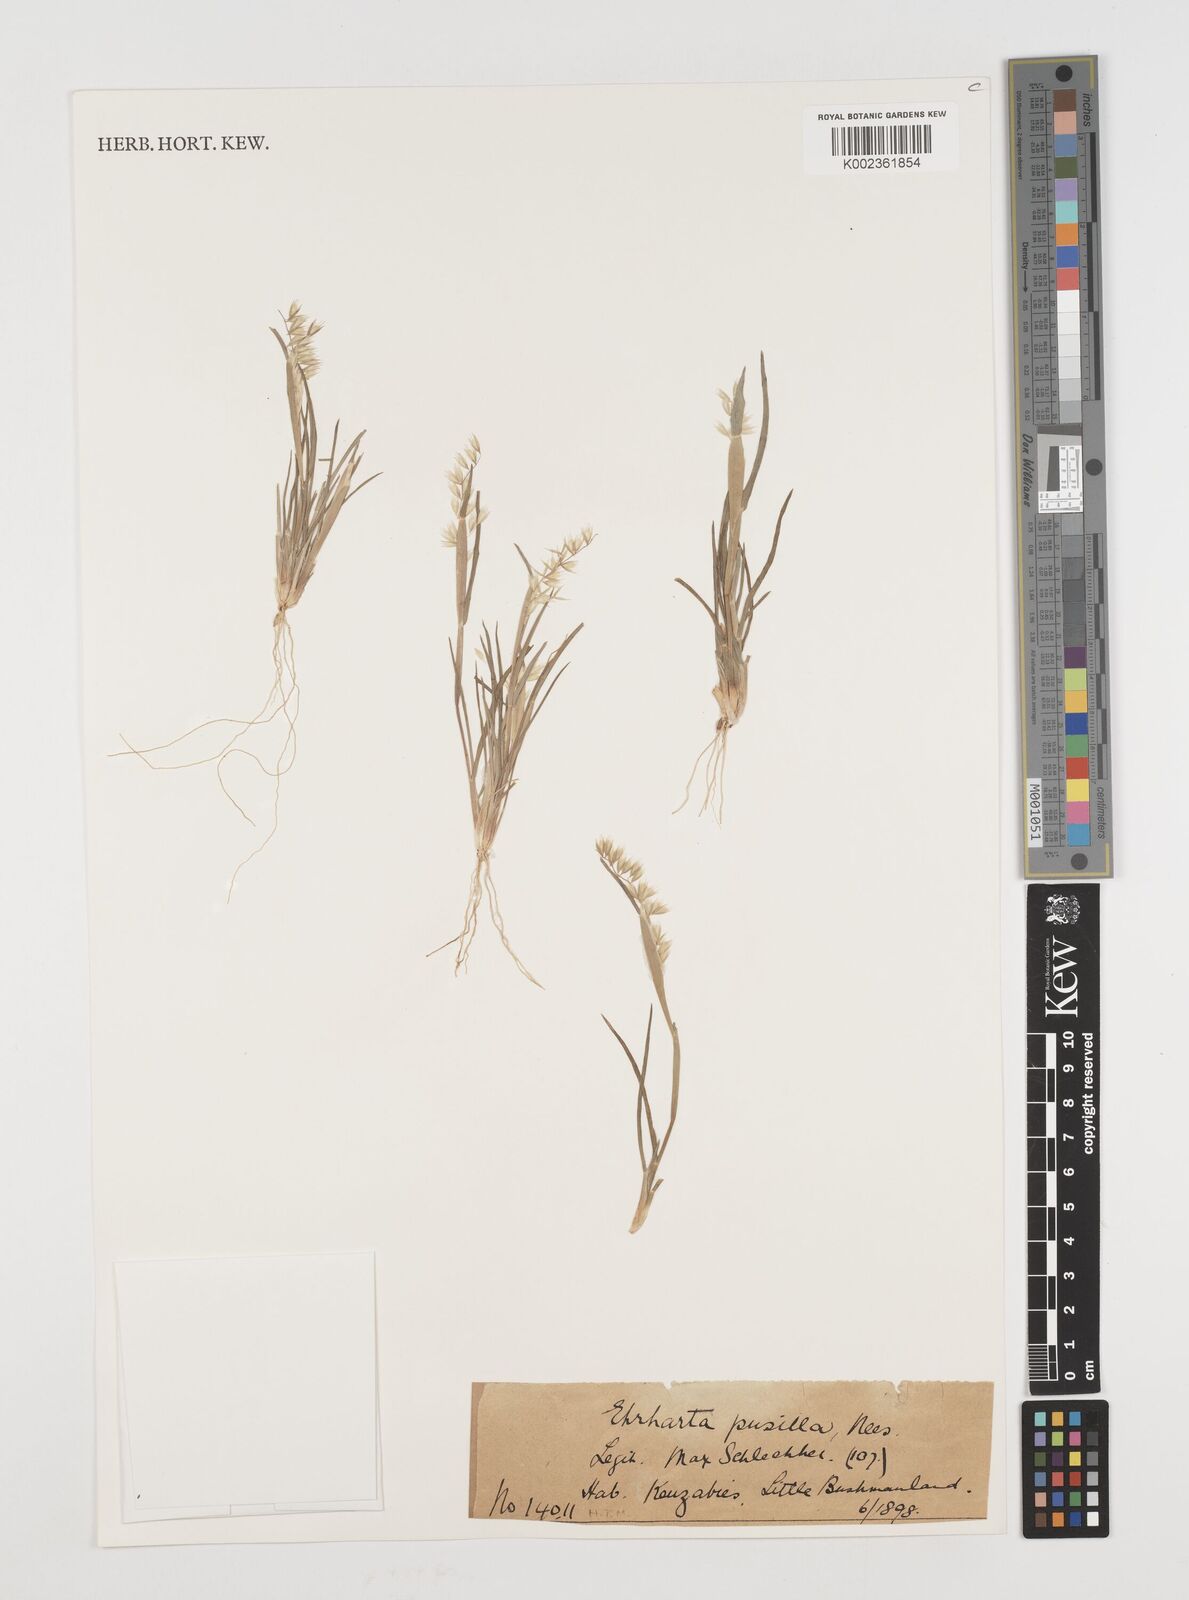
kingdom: Plantae
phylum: Tracheophyta
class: Liliopsida
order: Poales
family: Poaceae
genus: Ehrharta
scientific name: Ehrharta pusilla
